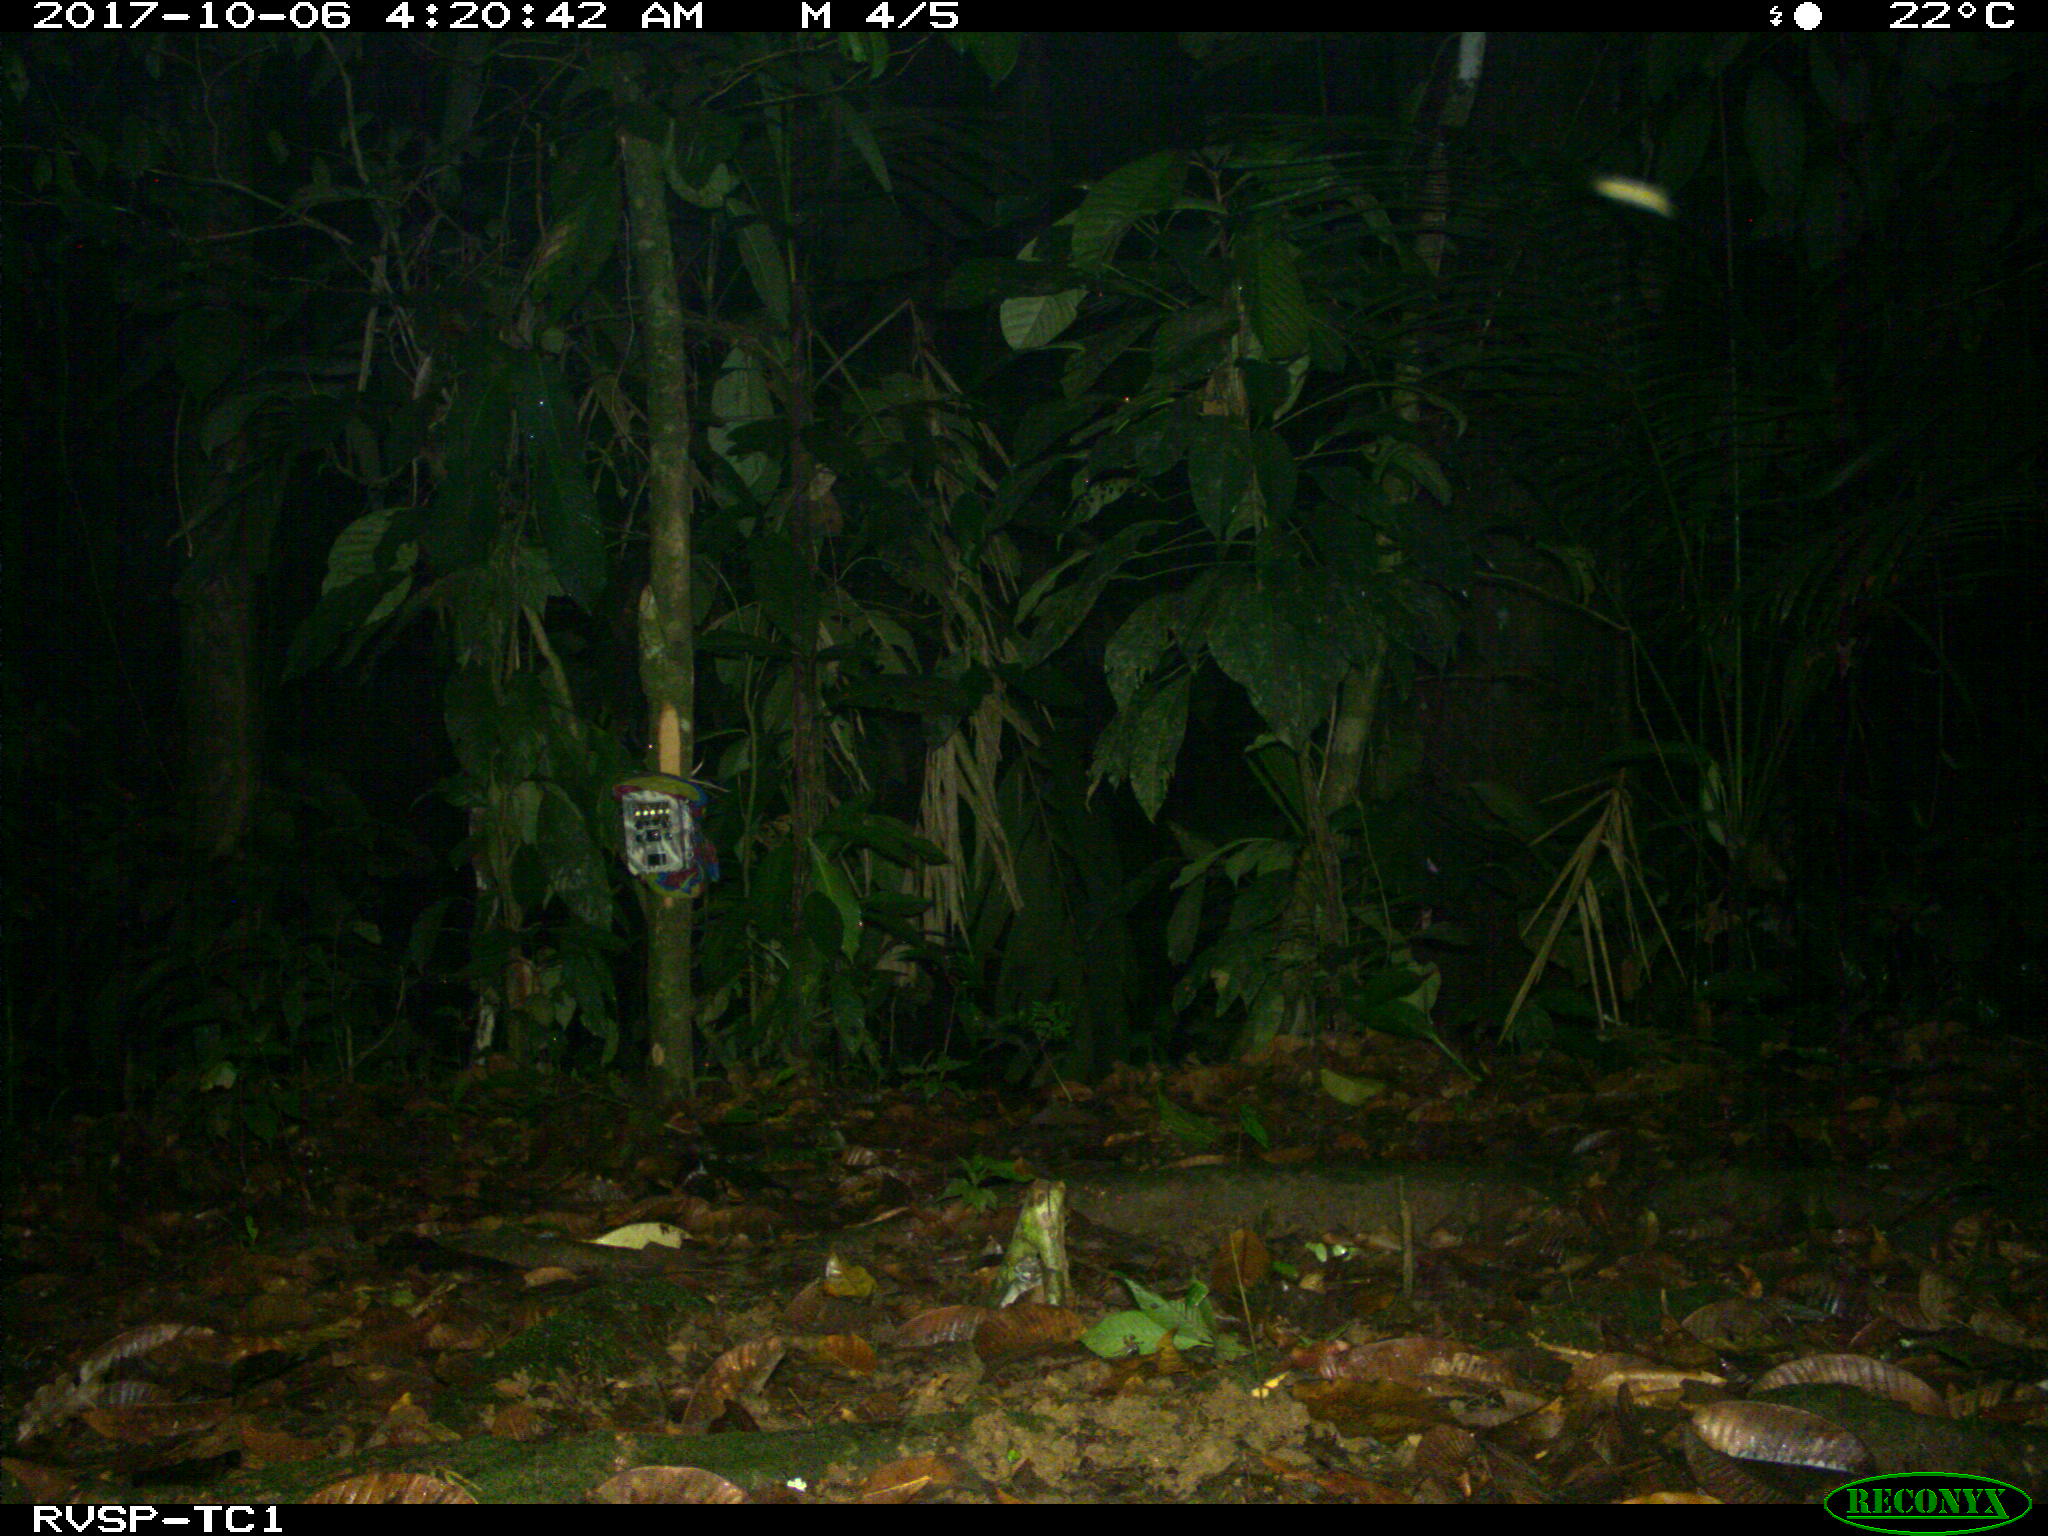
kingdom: Animalia
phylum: Chordata
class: Mammalia
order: Carnivora
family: Felidae
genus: Leopardus
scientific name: Leopardus pardalis
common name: Ocelot
